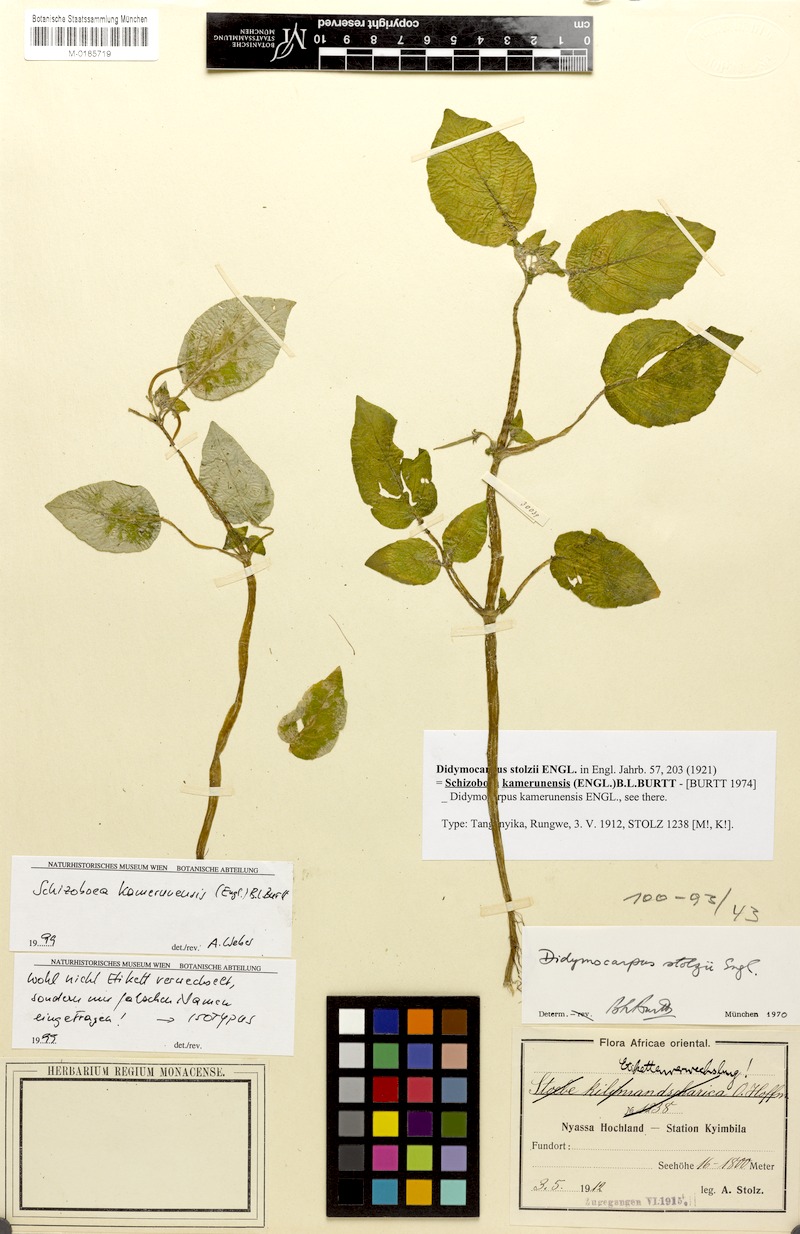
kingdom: Plantae
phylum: Tracheophyta
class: Magnoliopsida
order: Lamiales
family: Gesneriaceae
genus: Streptocarpus
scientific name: Streptocarpus kamerunensis
